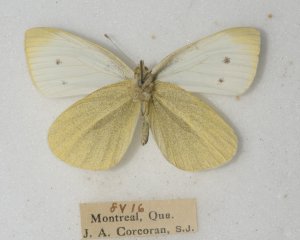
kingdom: Animalia
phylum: Arthropoda
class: Insecta
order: Lepidoptera
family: Pieridae
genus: Pieris
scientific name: Pieris rapae
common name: Cabbage White
